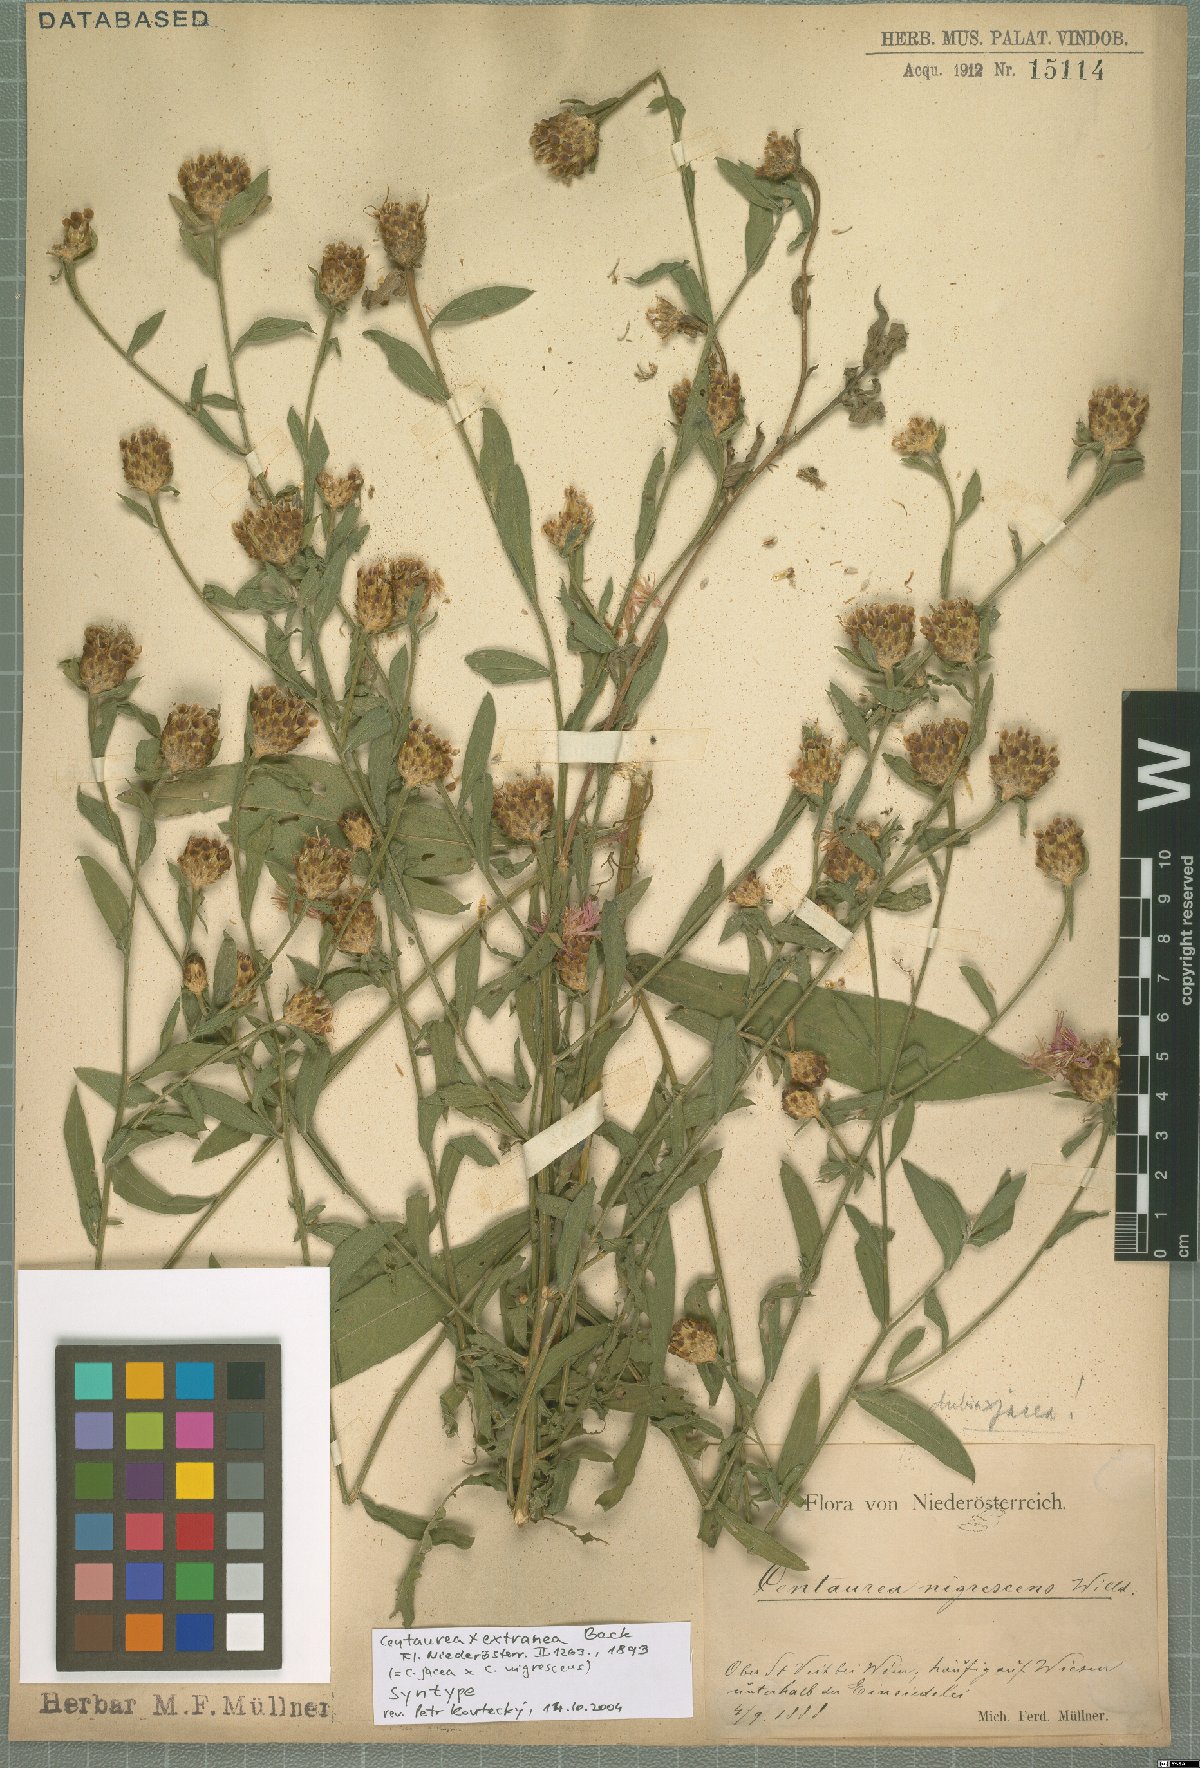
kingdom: Plantae
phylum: Tracheophyta
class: Magnoliopsida
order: Asterales
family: Asteraceae
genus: Centaurea
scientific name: Centaurea extranea
